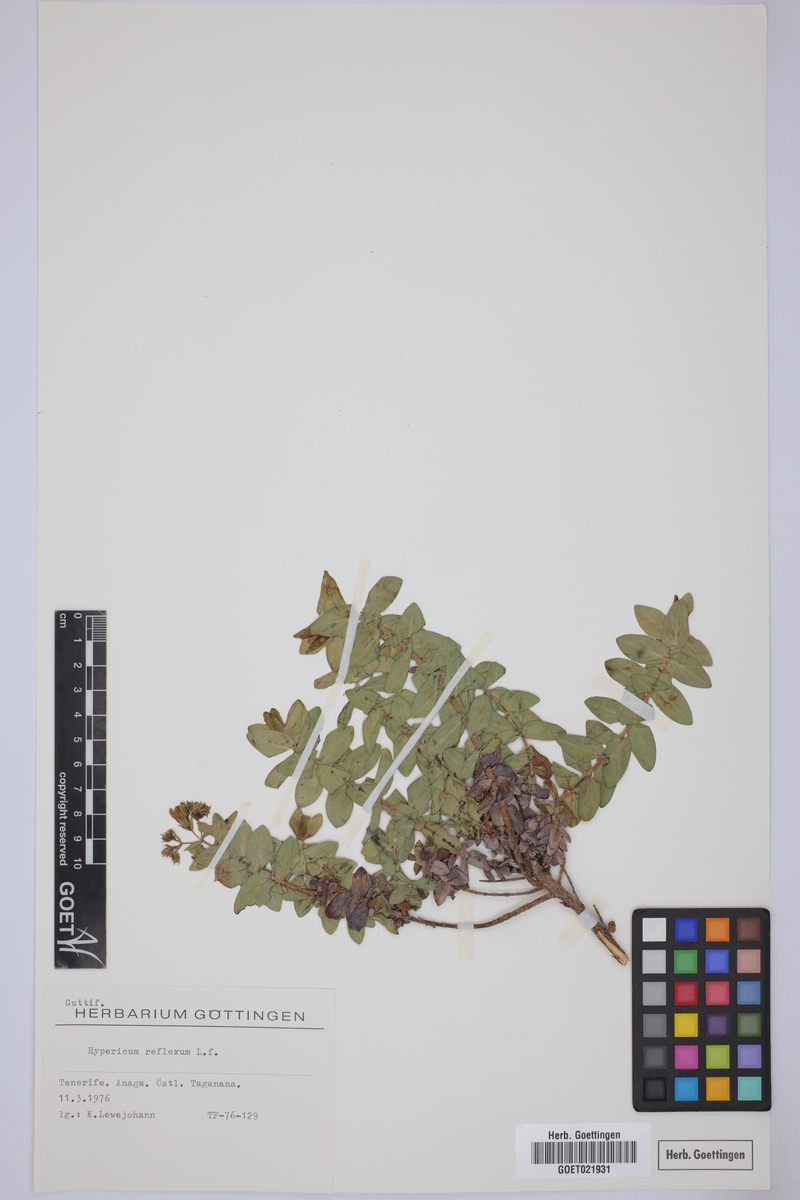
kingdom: Plantae
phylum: Tracheophyta
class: Magnoliopsida
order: Malpighiales
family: Hypericaceae
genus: Hypericum
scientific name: Hypericum reflexum
